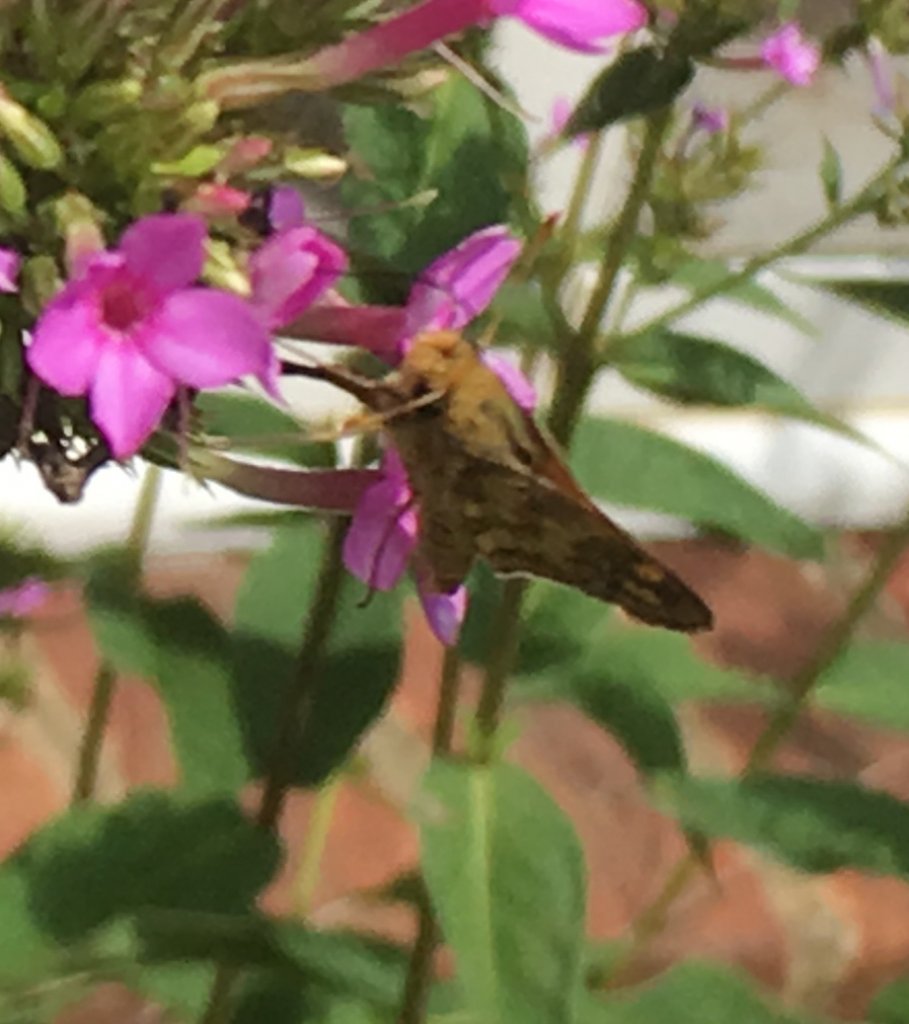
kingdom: Animalia
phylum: Arthropoda
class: Insecta
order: Lepidoptera
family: Hesperiidae
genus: Polites
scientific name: Polites coras
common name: Peck's Skipper
